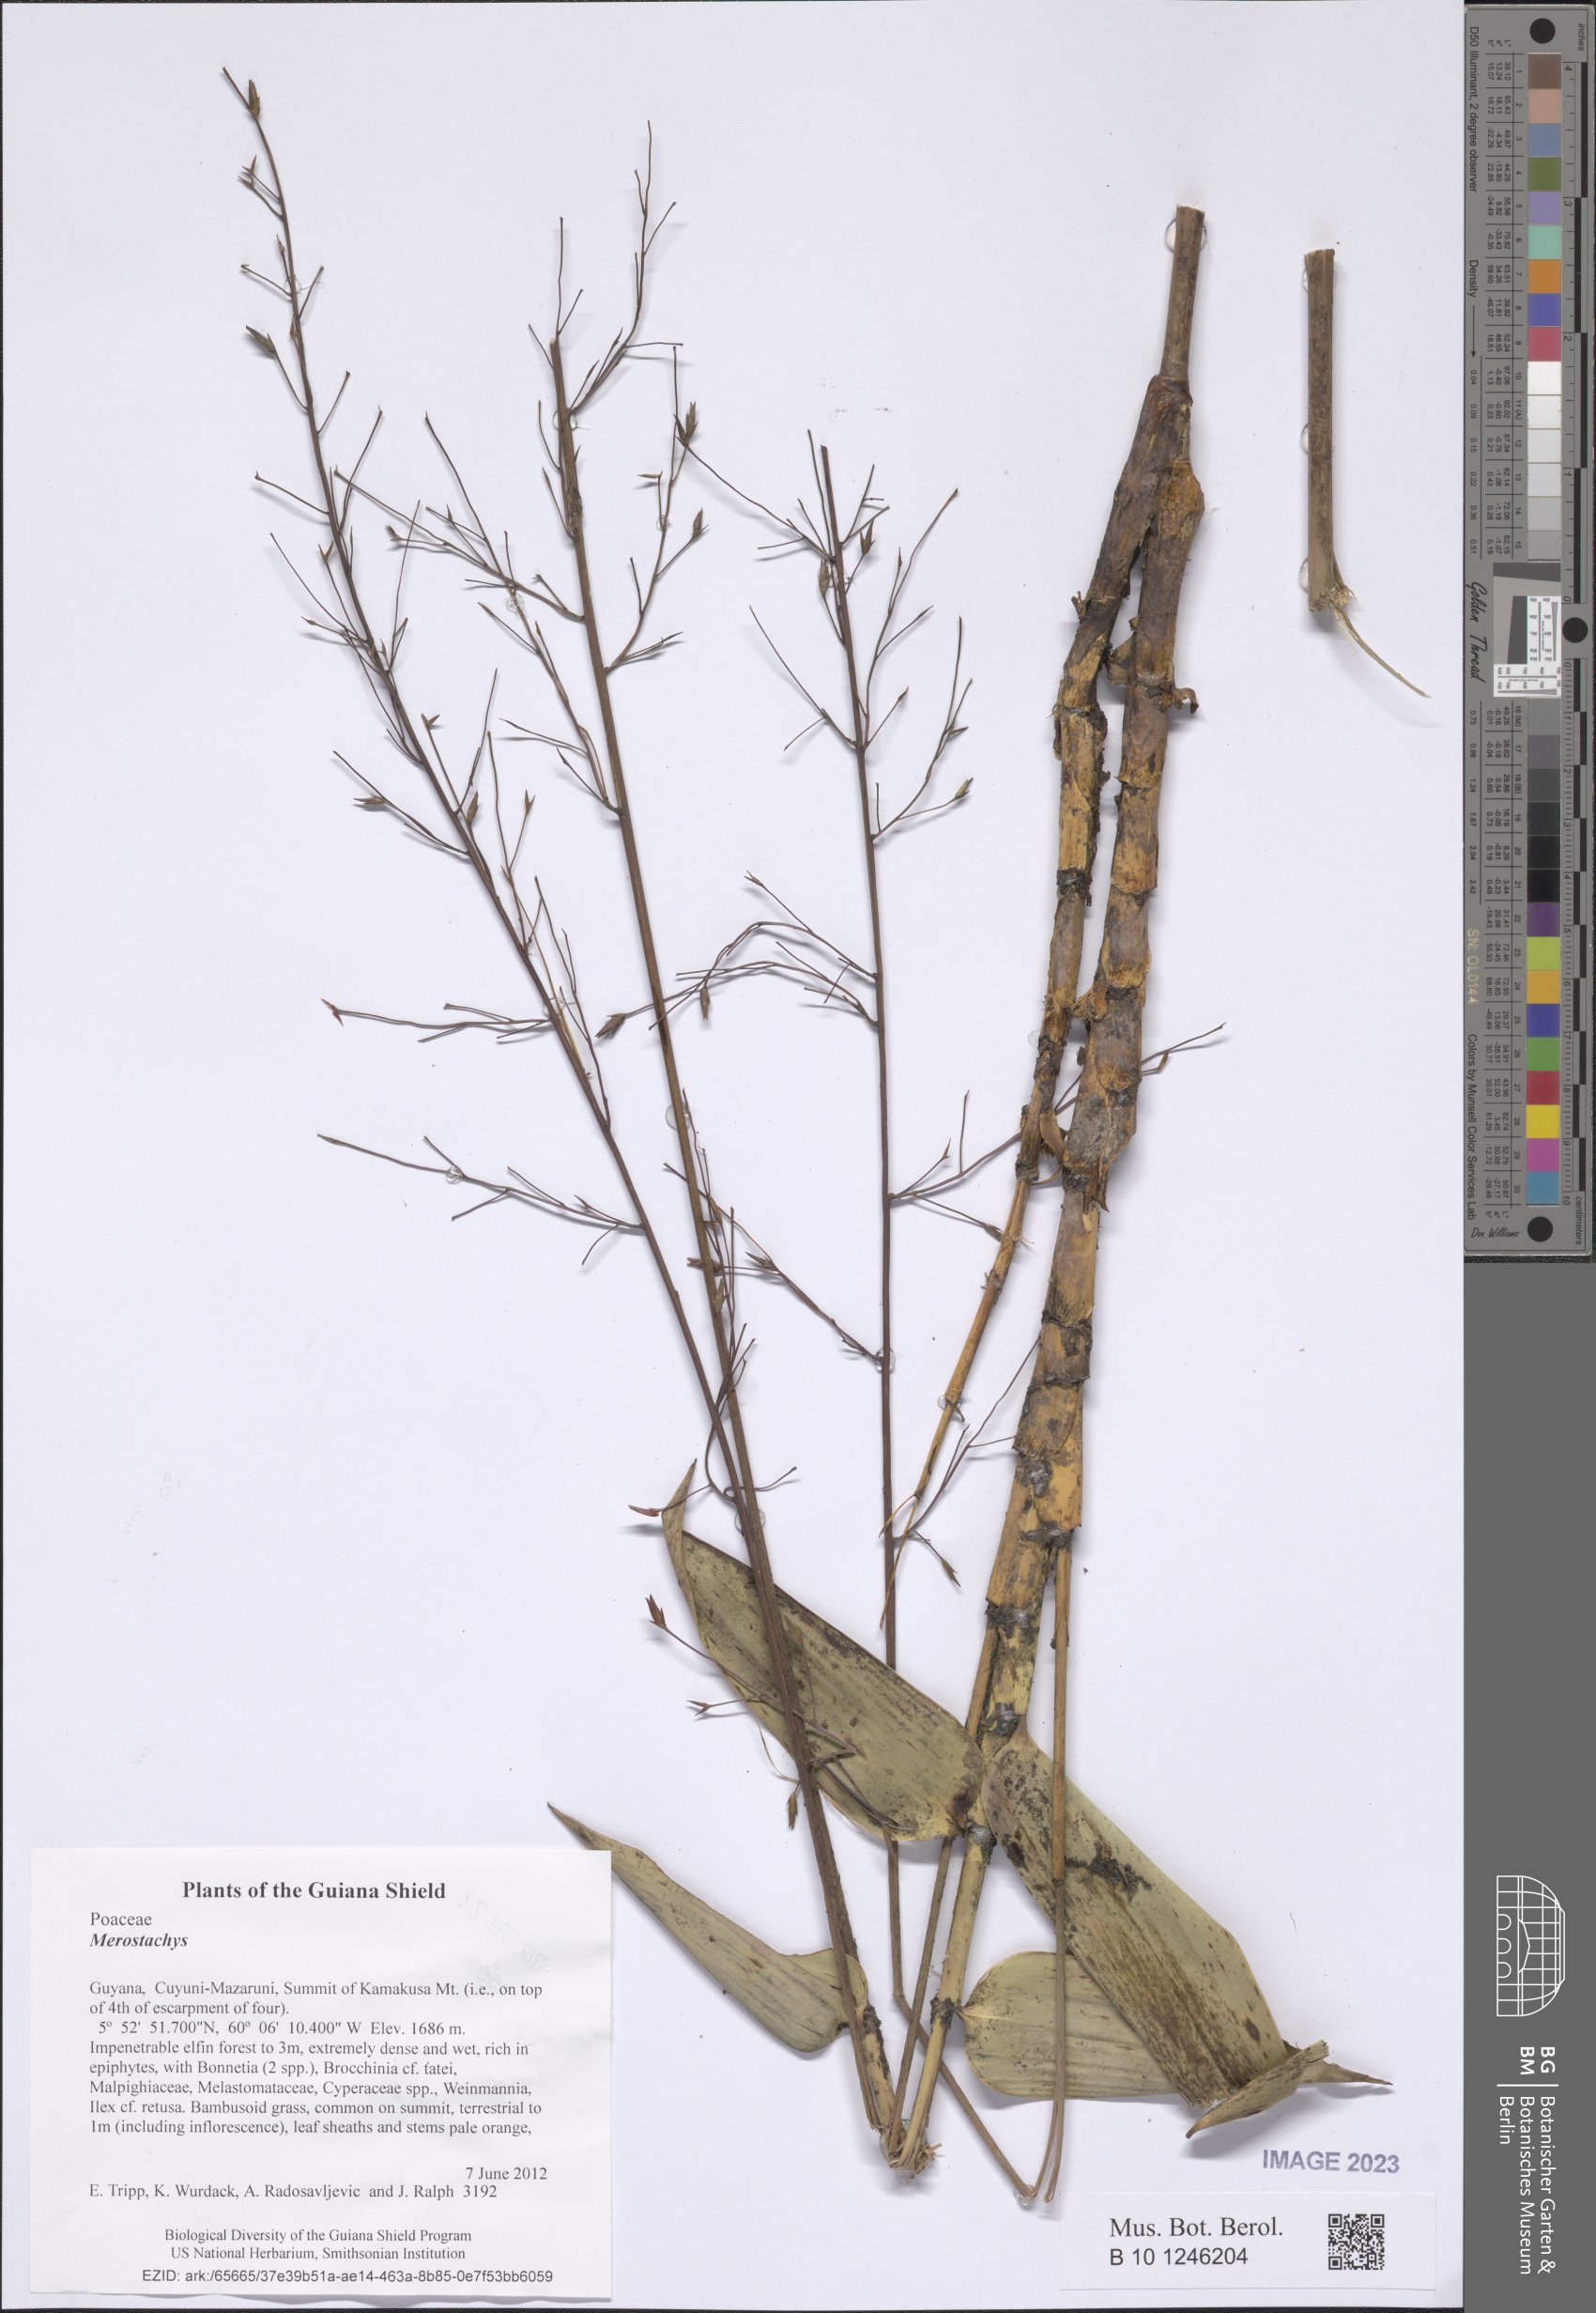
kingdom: Plantae
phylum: Tracheophyta
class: Liliopsida
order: Poales
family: Poaceae
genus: Merostachys
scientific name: Merostachys
